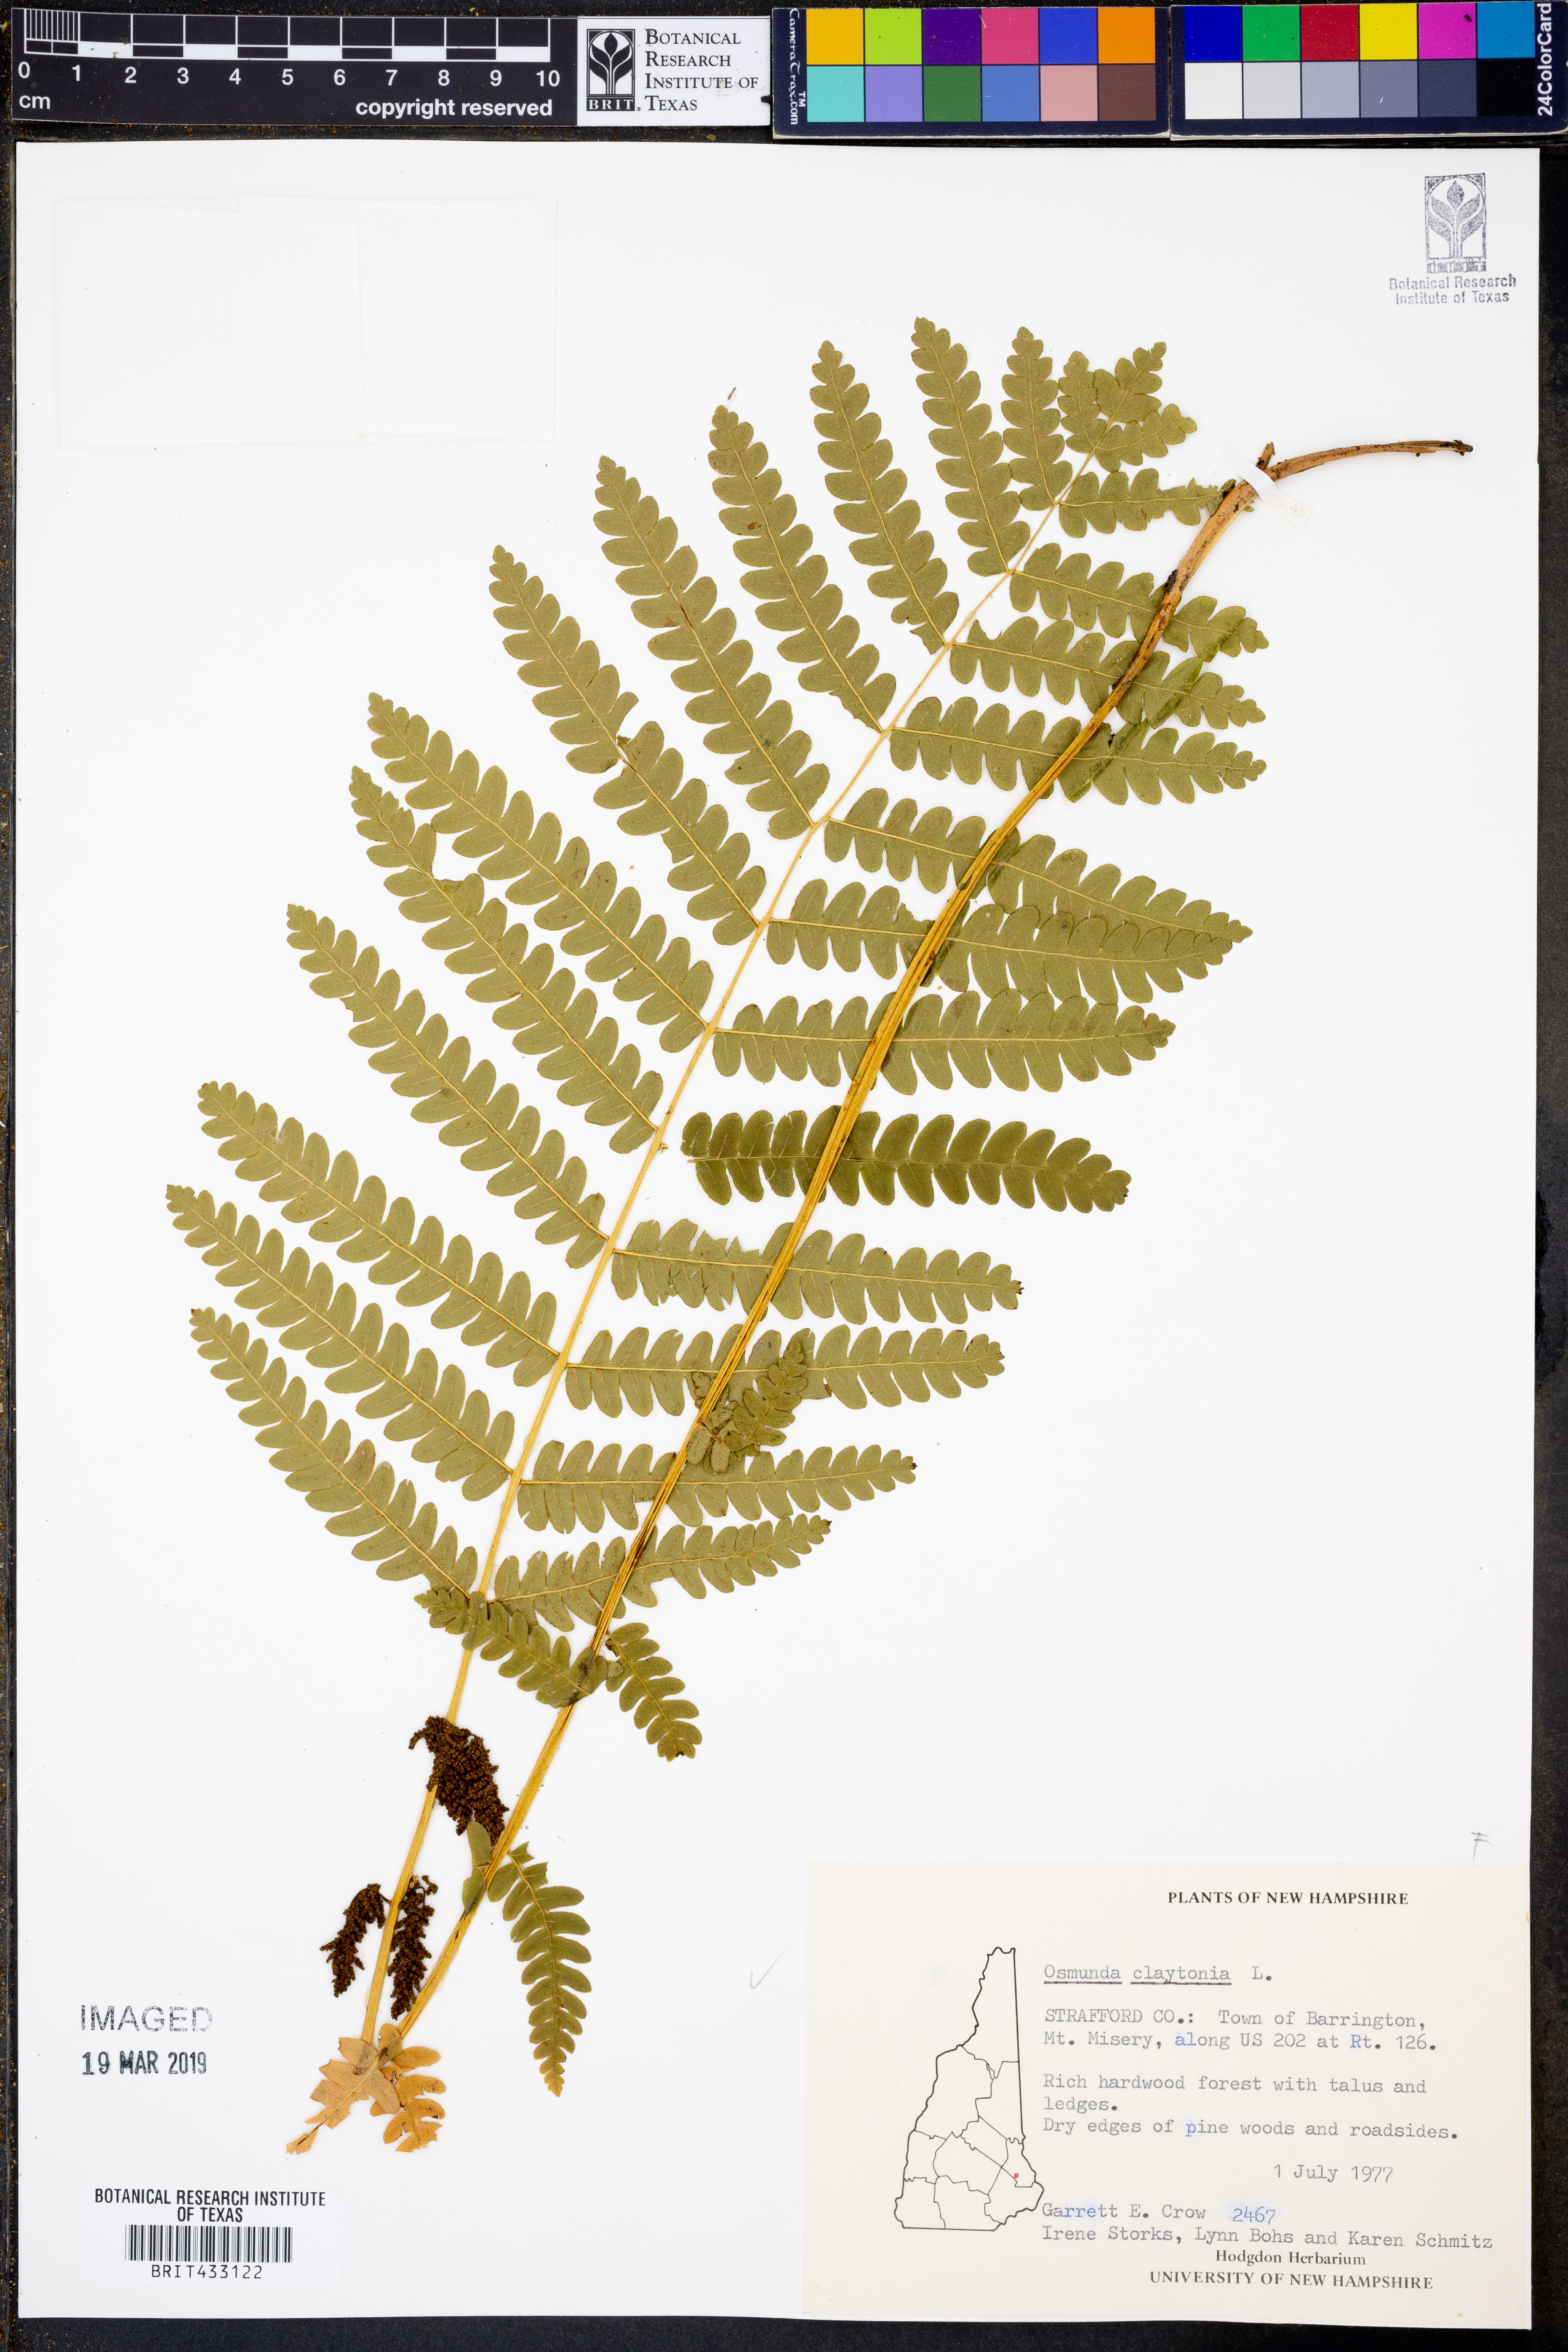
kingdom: Plantae
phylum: Tracheophyta
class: Polypodiopsida
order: Osmundales
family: Osmundaceae
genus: Claytosmunda
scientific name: Claytosmunda claytoniana
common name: Clayton's fern
